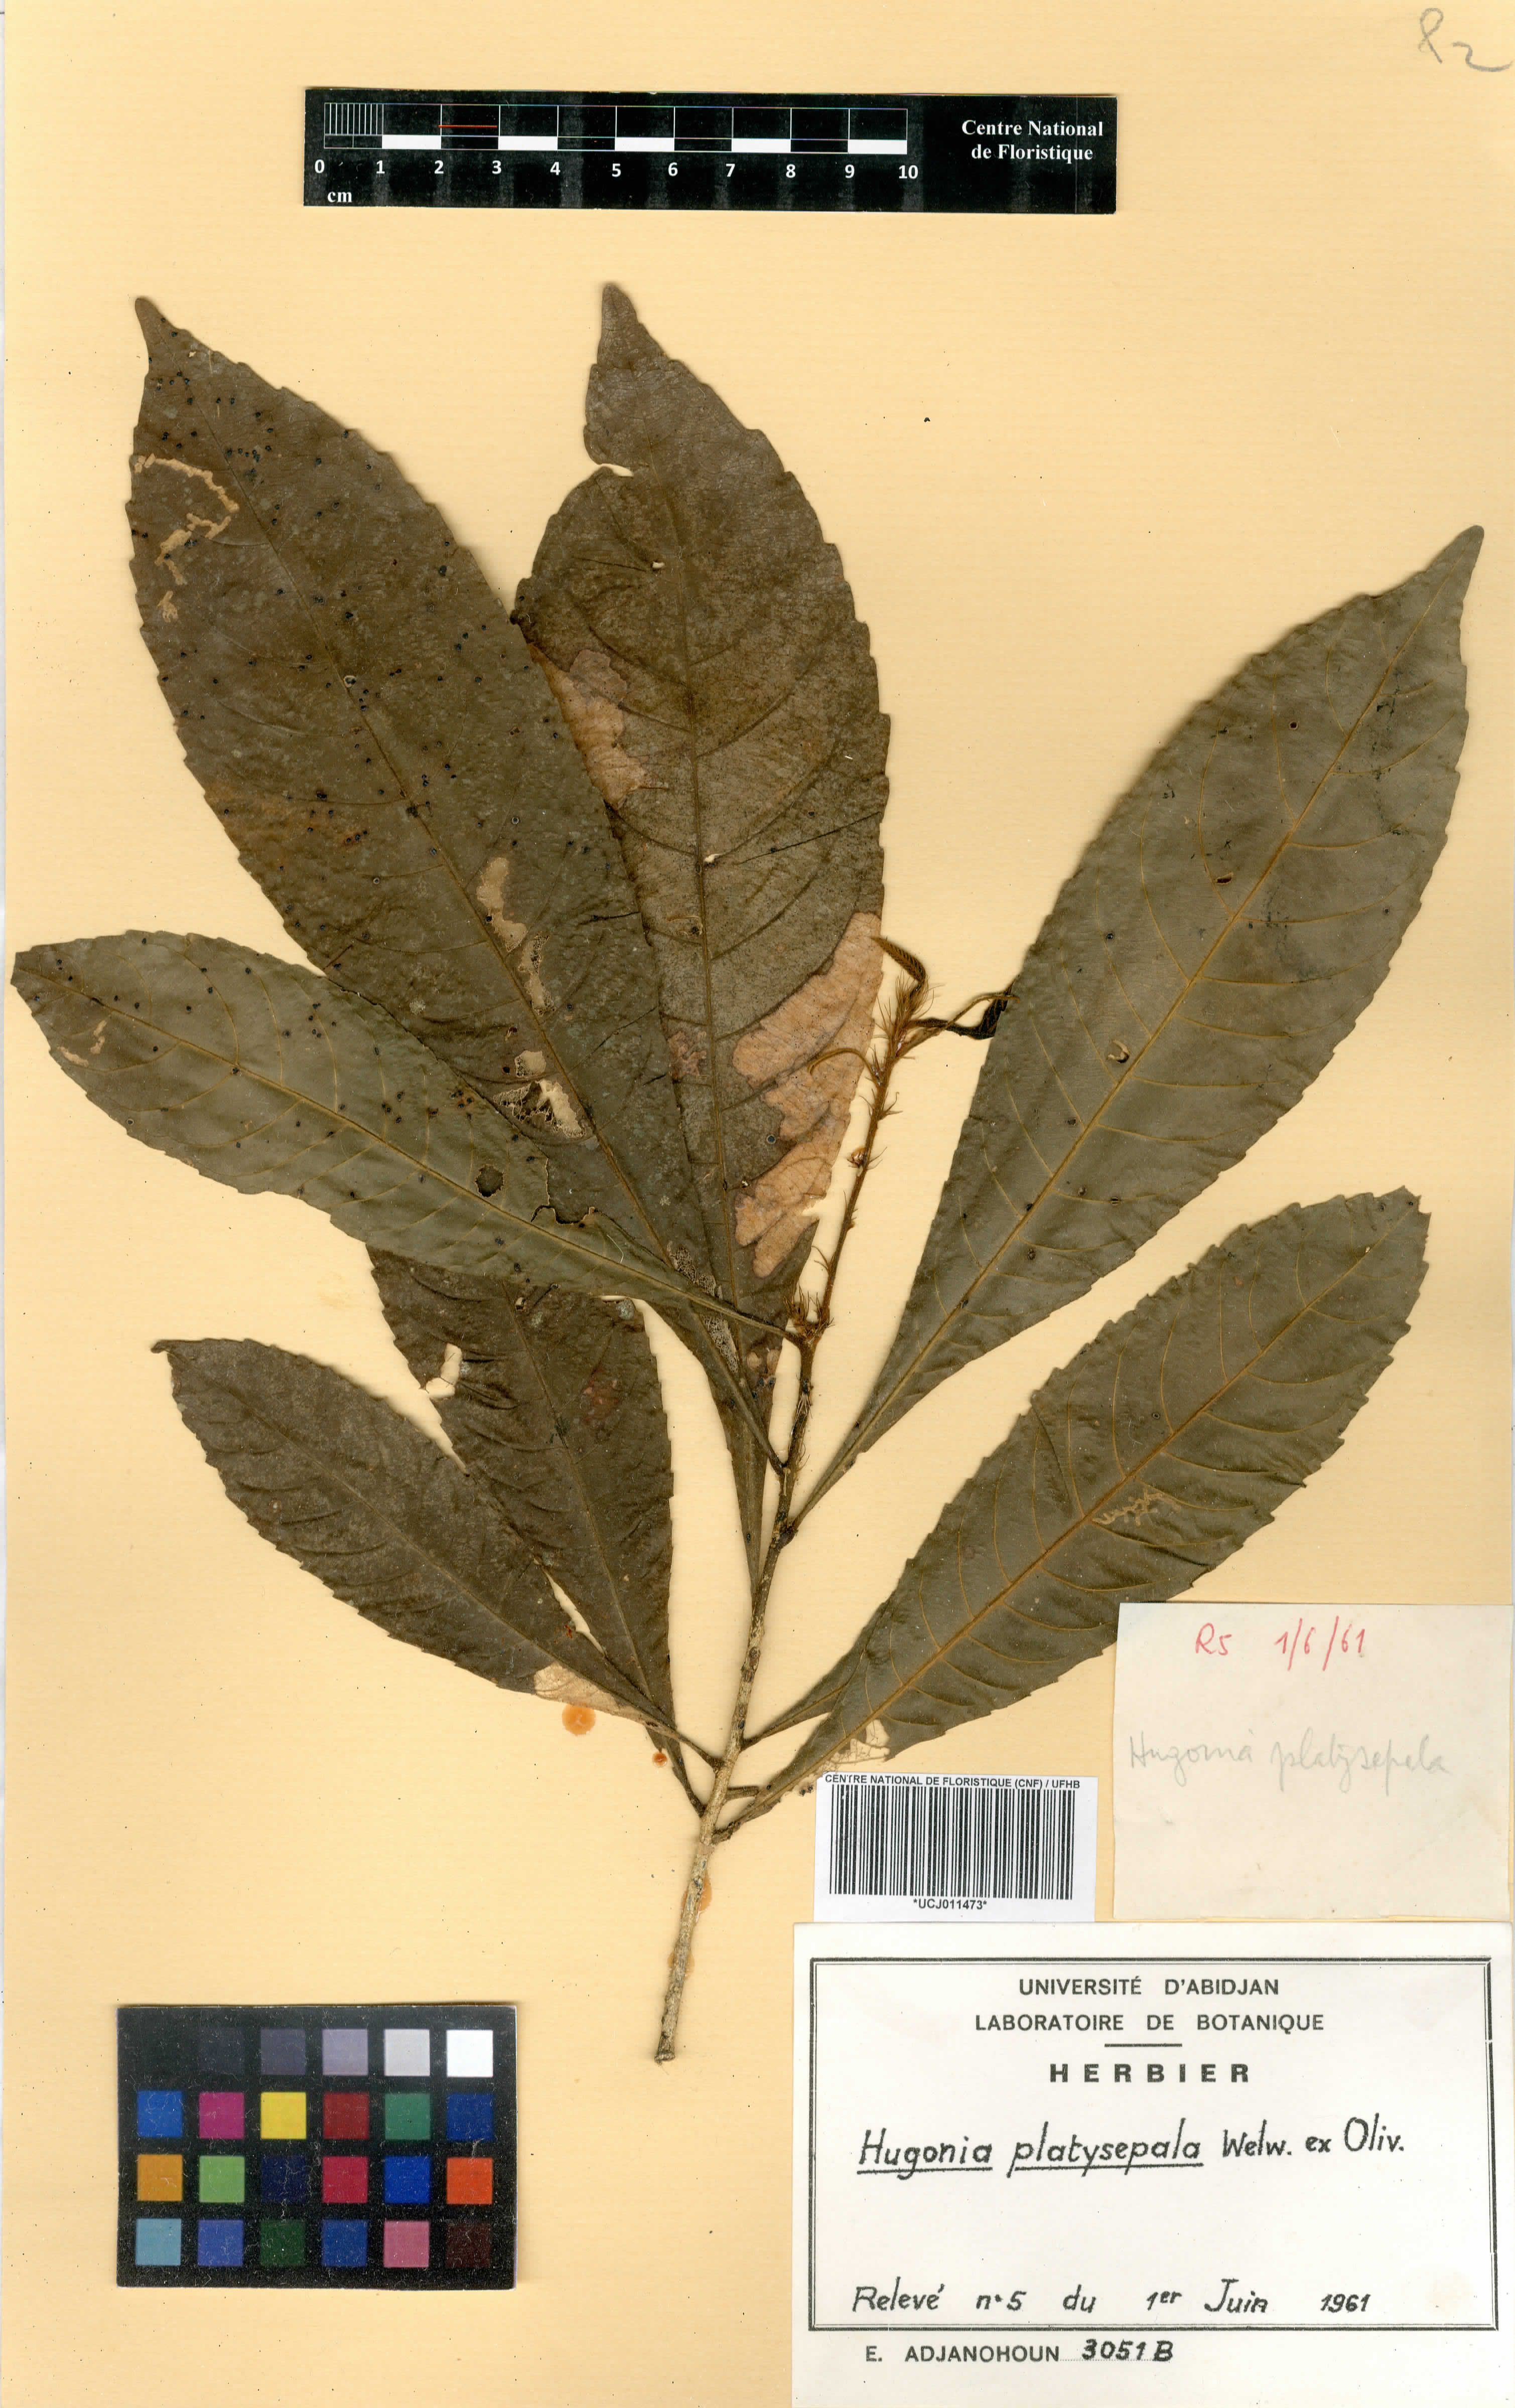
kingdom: Plantae
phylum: Tracheophyta
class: Magnoliopsida
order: Malpighiales
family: Linaceae
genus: Hugonia
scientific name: Hugonia platysepala
